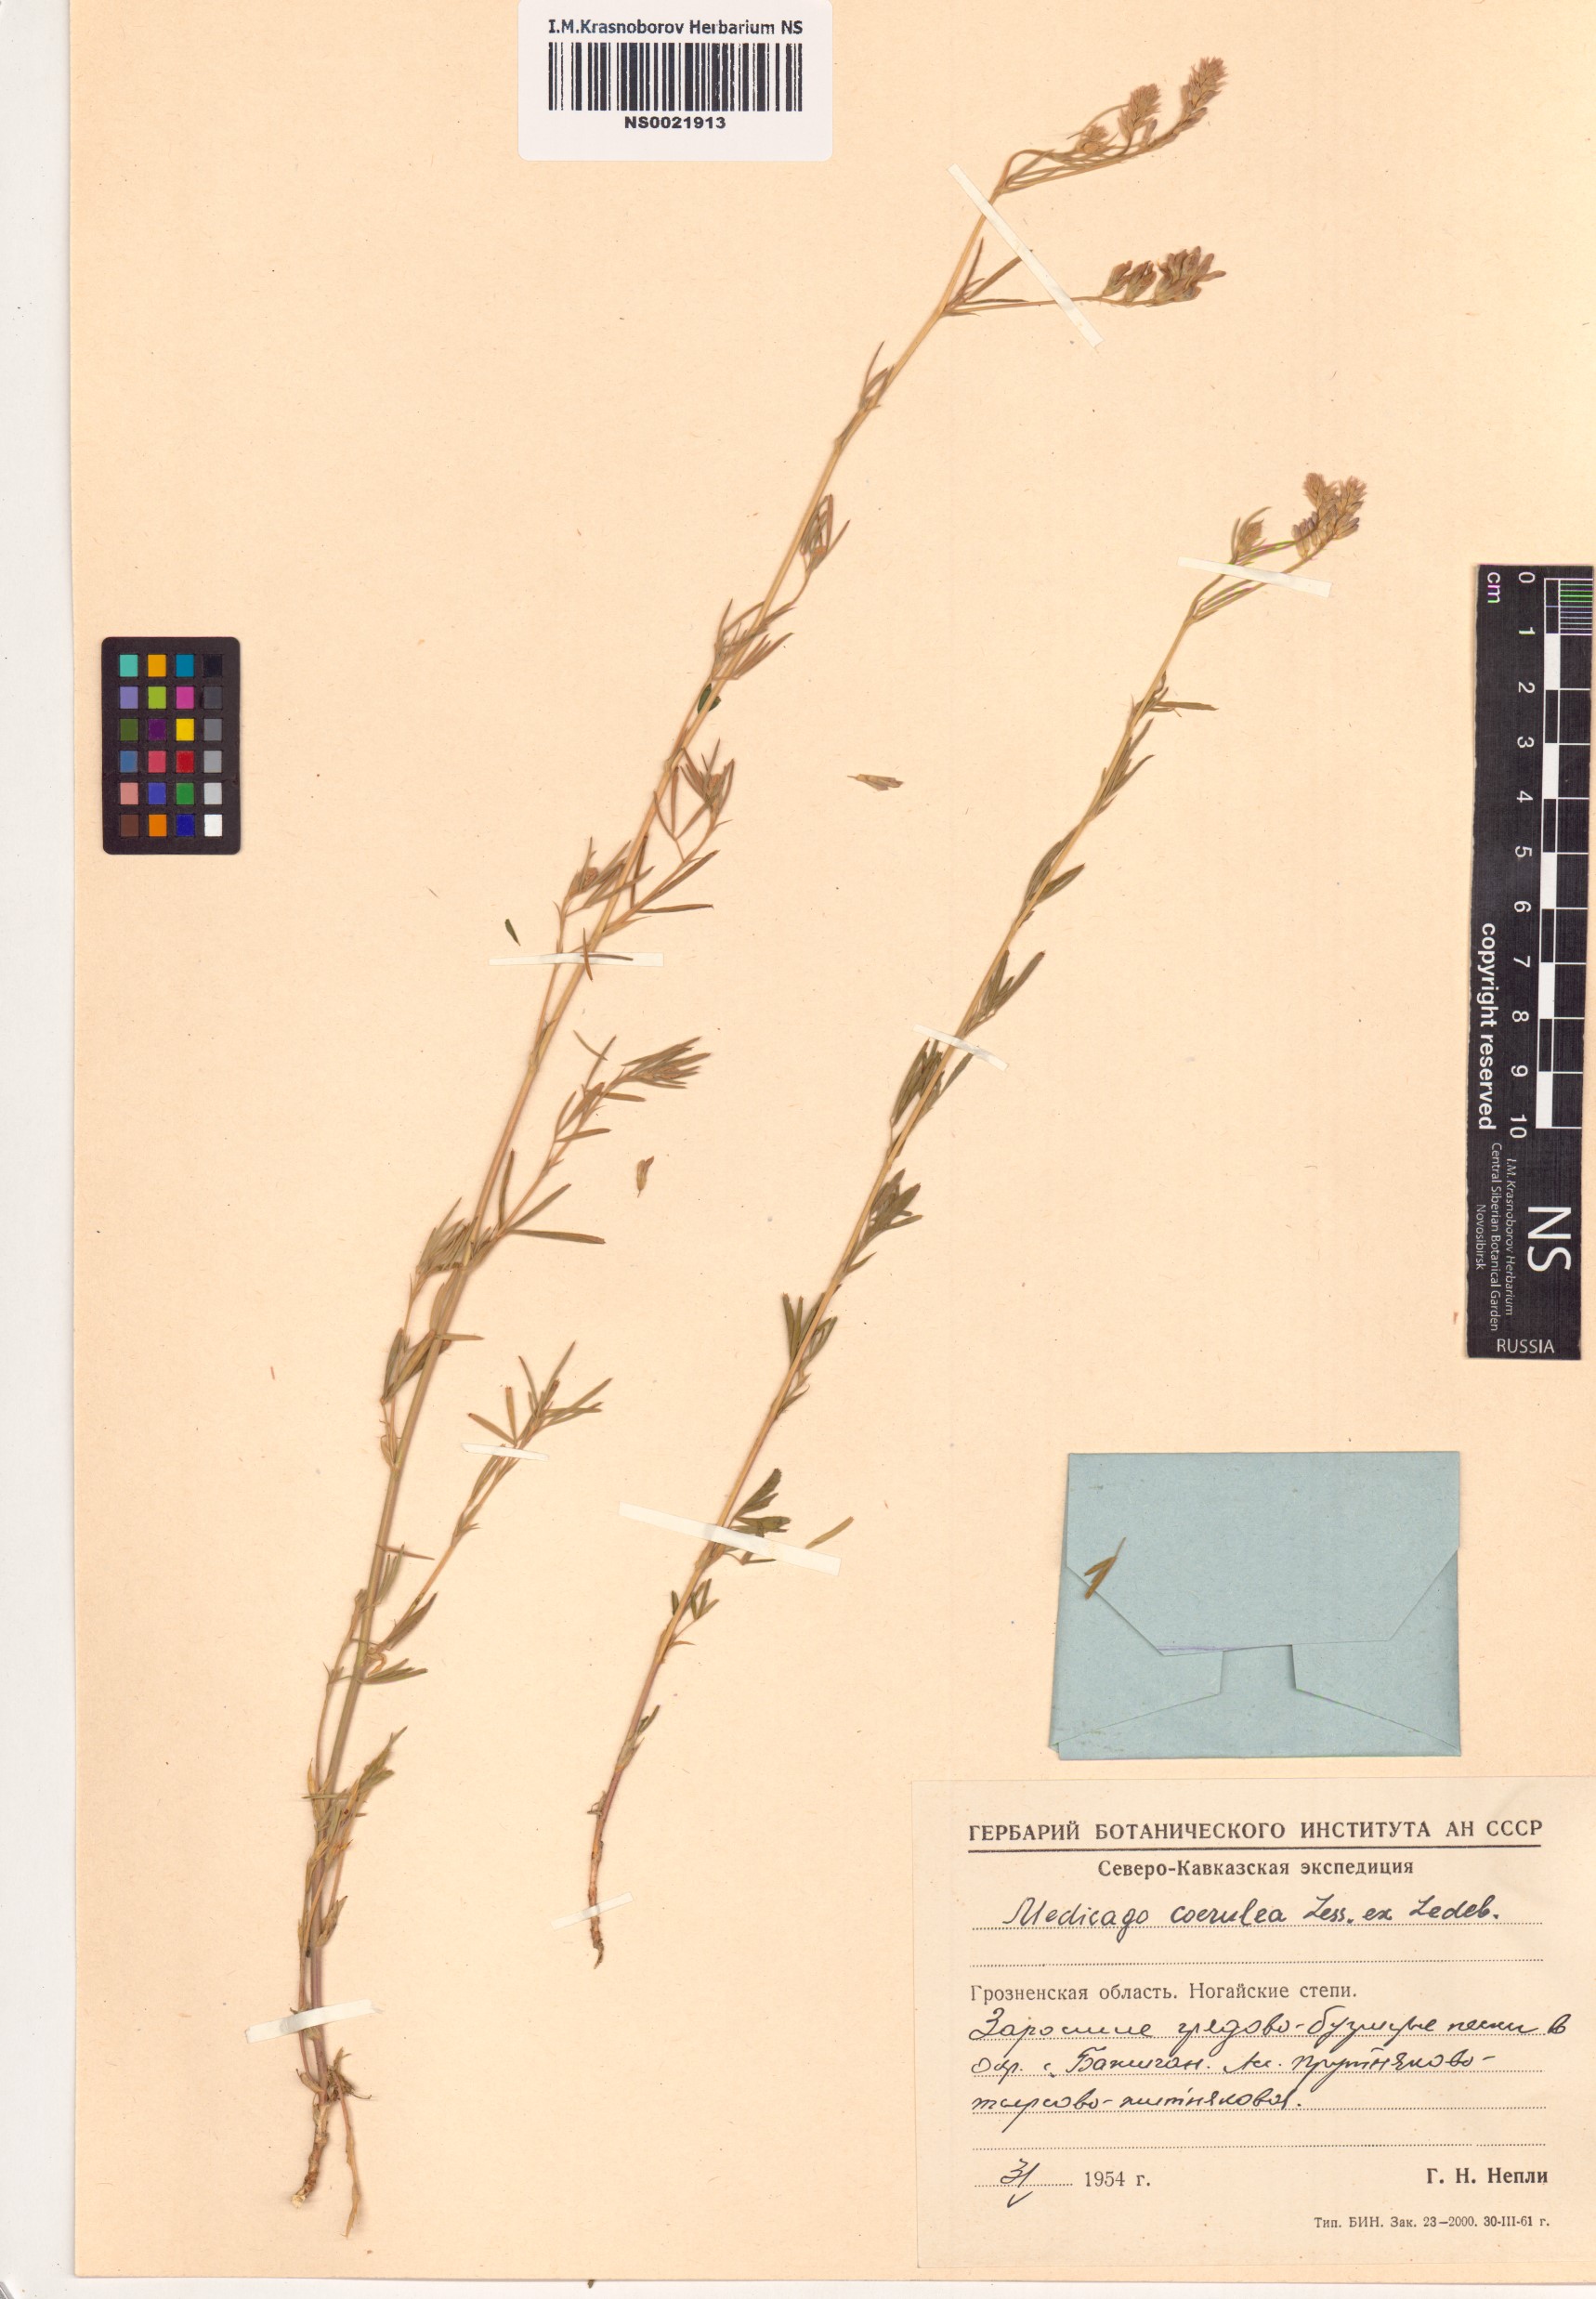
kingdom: Plantae
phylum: Tracheophyta
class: Magnoliopsida
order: Fabales
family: Fabaceae
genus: Medicago
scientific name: Medicago sativa
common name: Alfalfa
